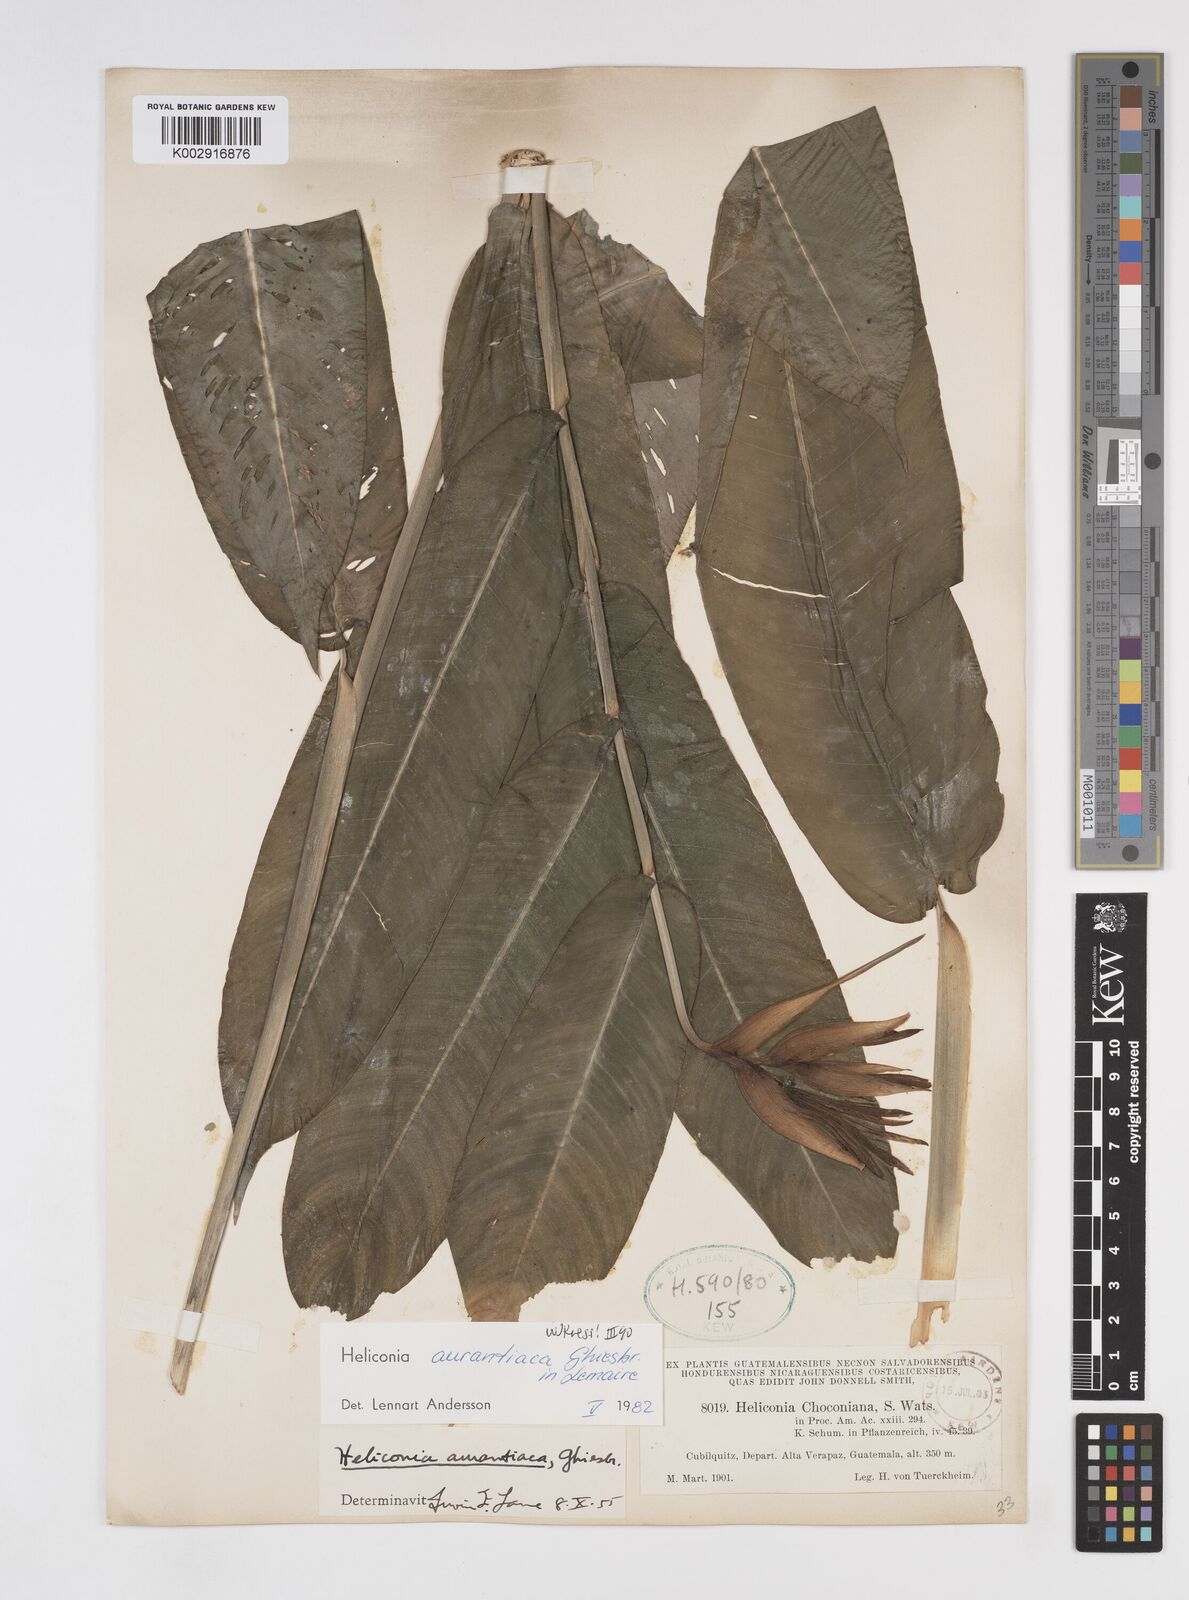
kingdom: Plantae
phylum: Tracheophyta
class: Liliopsida
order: Zingiberales
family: Heliconiaceae
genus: Heliconia
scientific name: Heliconia aurantiaca
